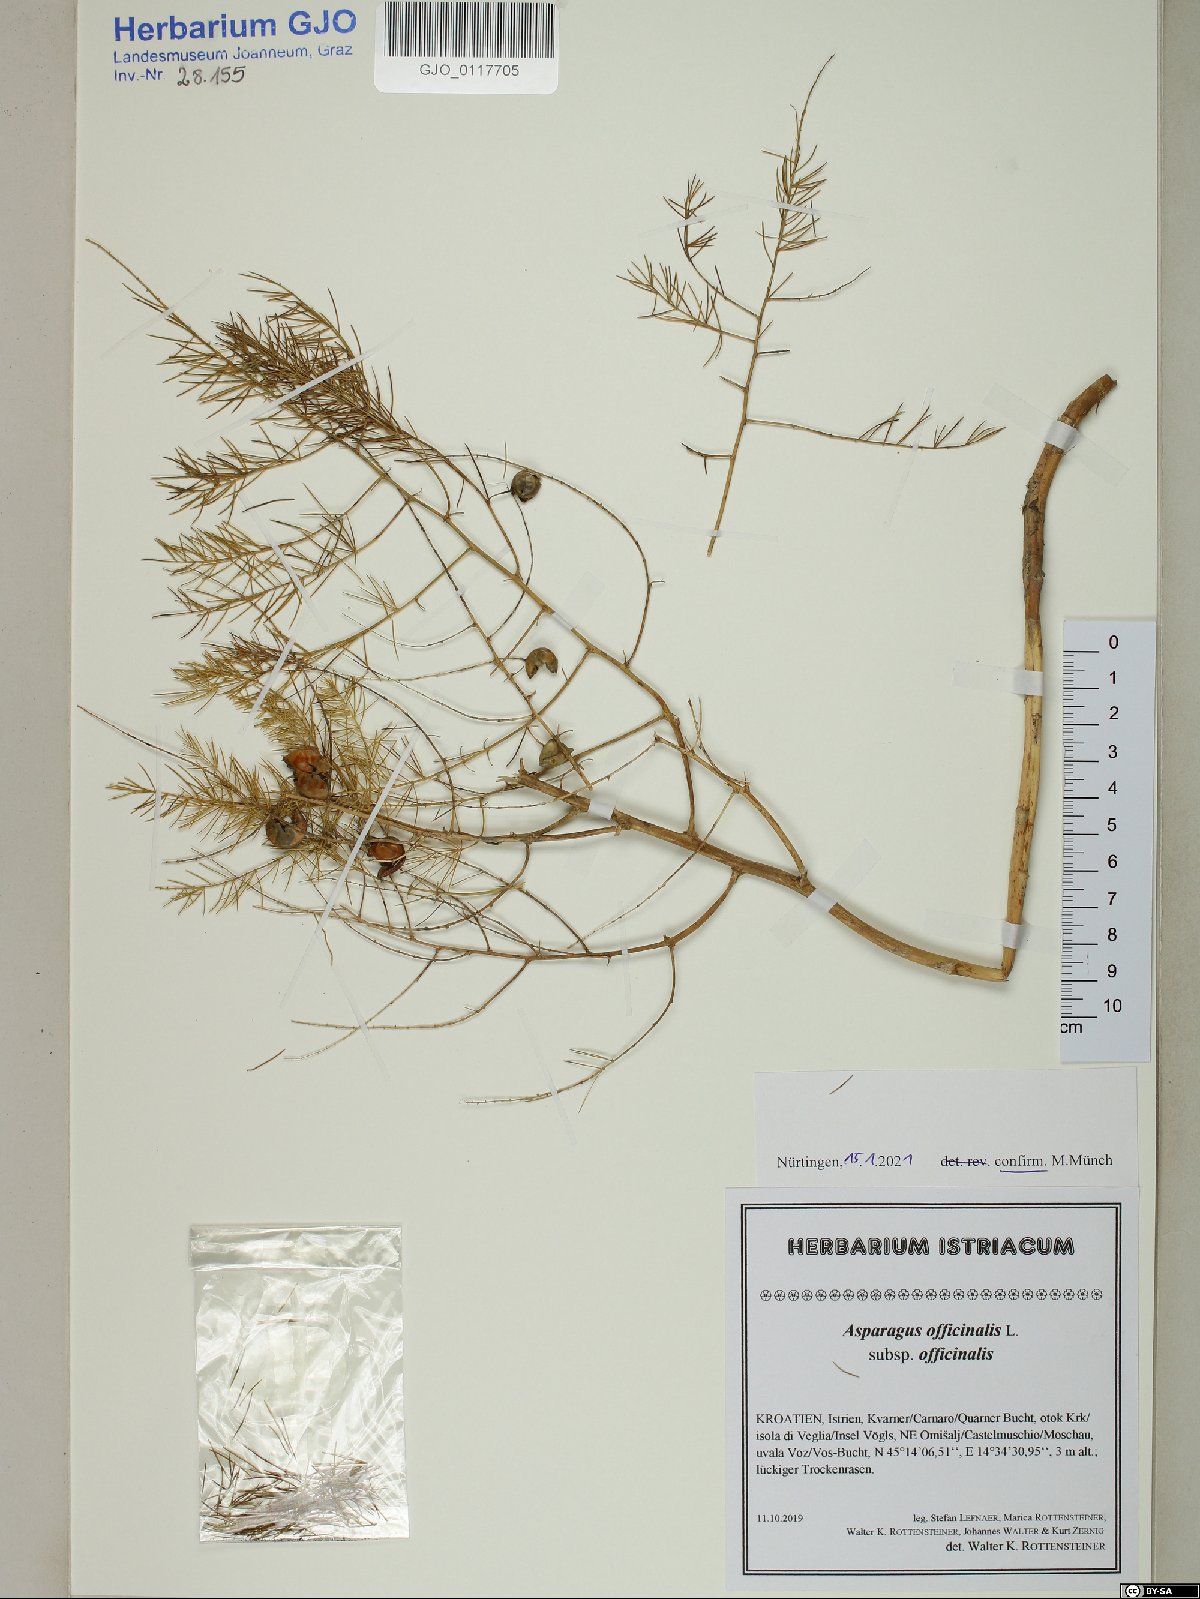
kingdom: Plantae
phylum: Tracheophyta
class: Liliopsida
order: Asparagales
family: Asparagaceae
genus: Asparagus
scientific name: Asparagus officinalis
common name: Garden asparagus
